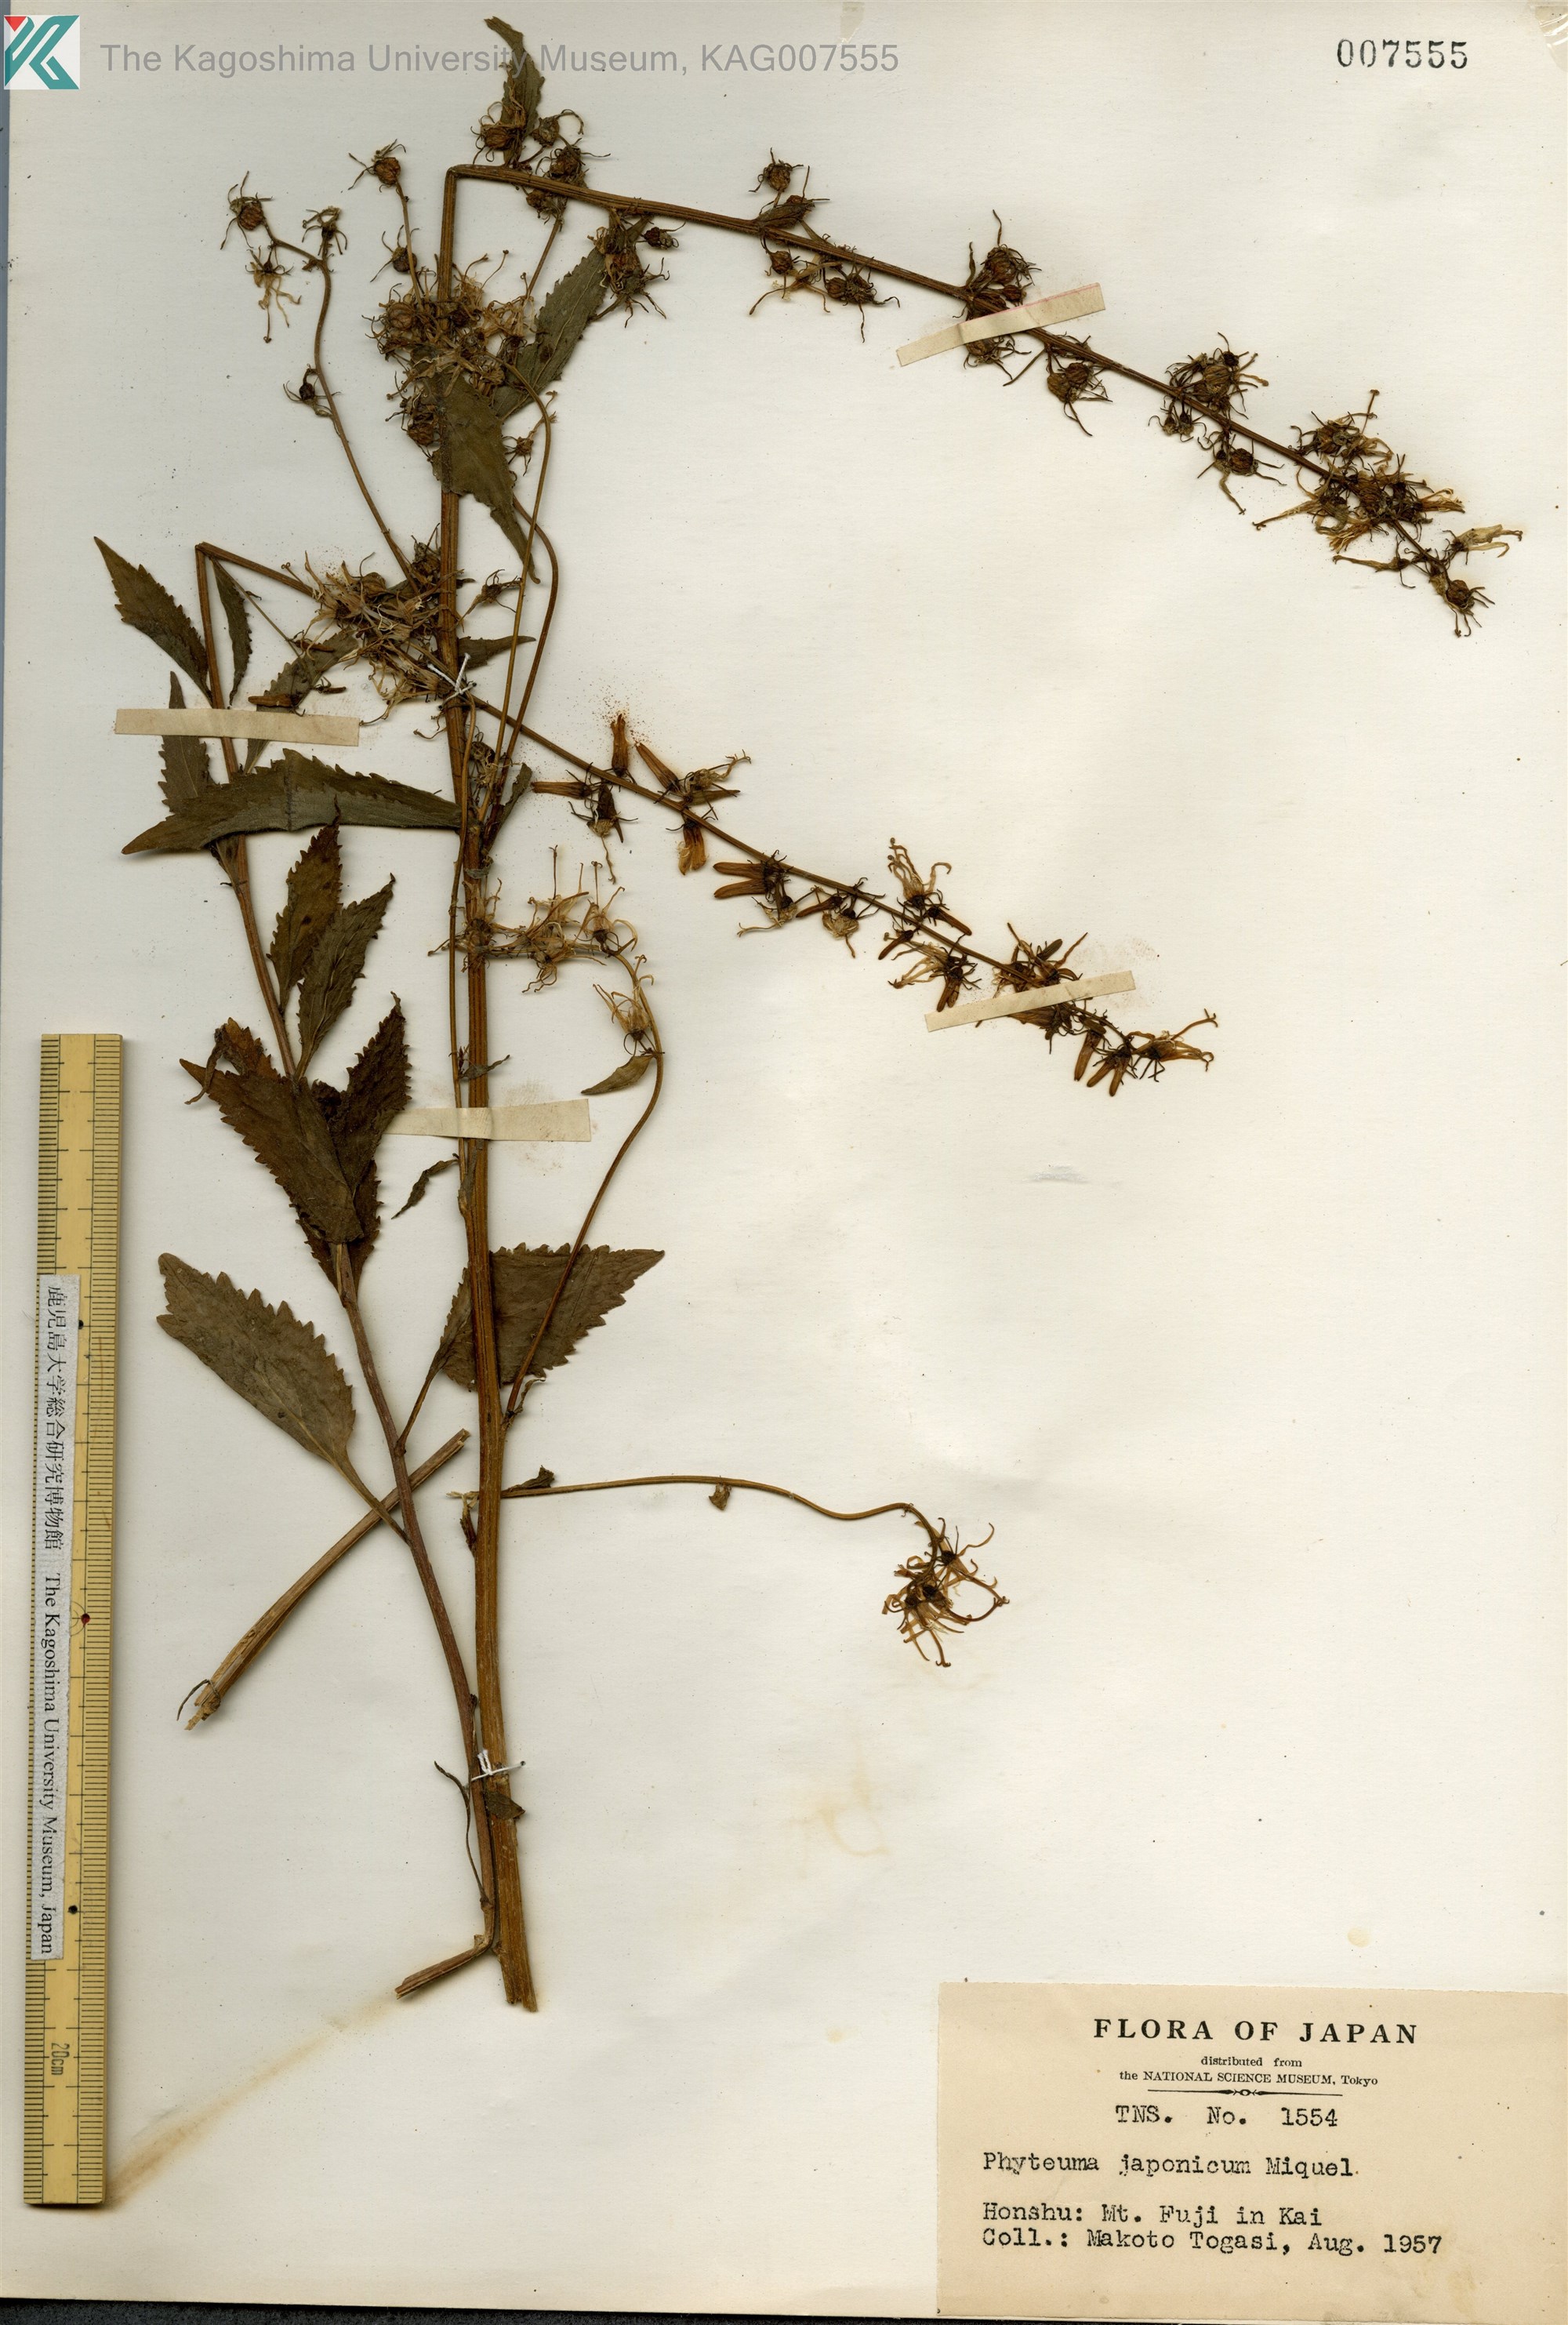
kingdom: Plantae
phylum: Tracheophyta
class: Magnoliopsida
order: Asterales
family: Campanulaceae
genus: Asyneuma
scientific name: Asyneuma japonicum
